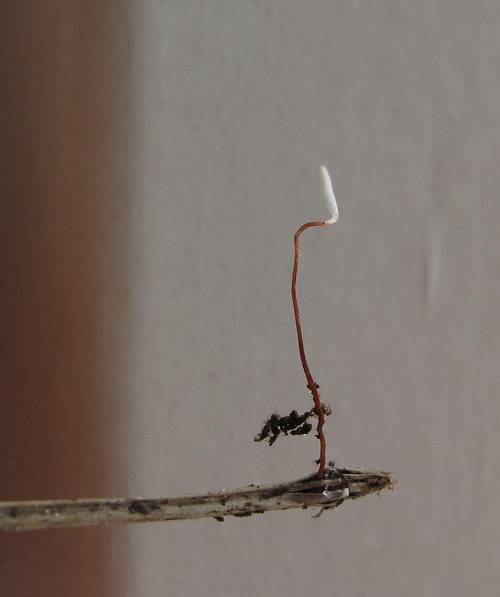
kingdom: Fungi
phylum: Basidiomycota
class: Agaricomycetes
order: Agaricales
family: Typhulaceae
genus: Typhula
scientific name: Typhula erythropus
